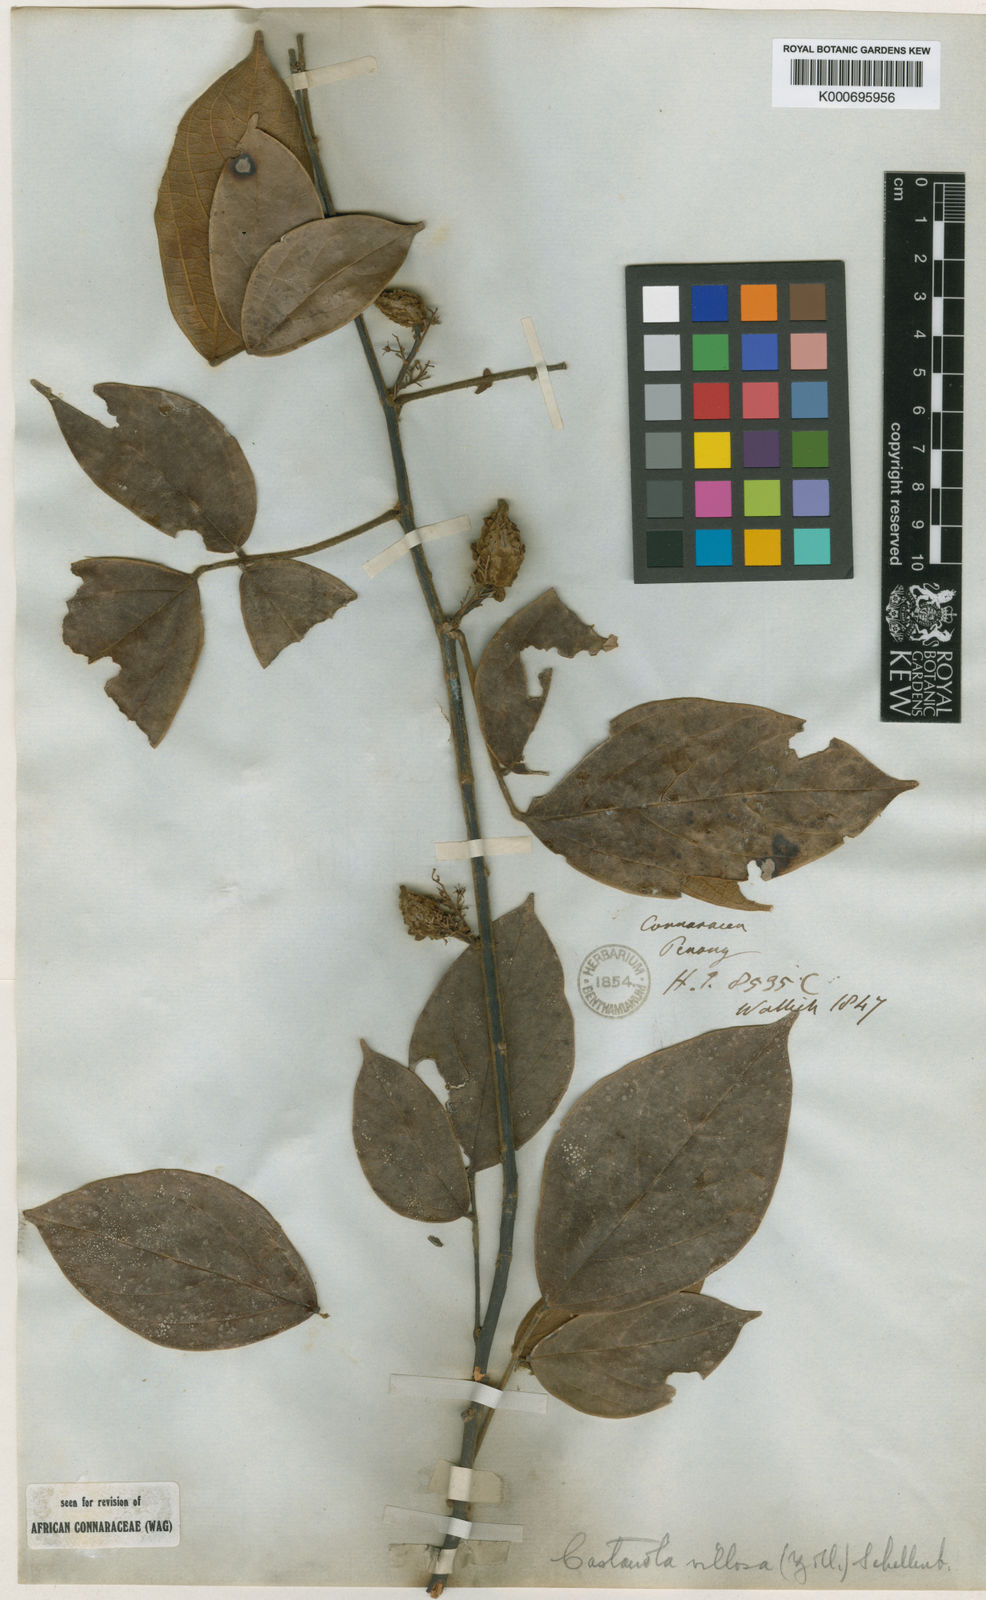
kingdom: Plantae
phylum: Tracheophyta
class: Magnoliopsida
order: Oxalidales
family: Connaraceae
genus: Agelaea
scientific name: Agelaea borneensis
